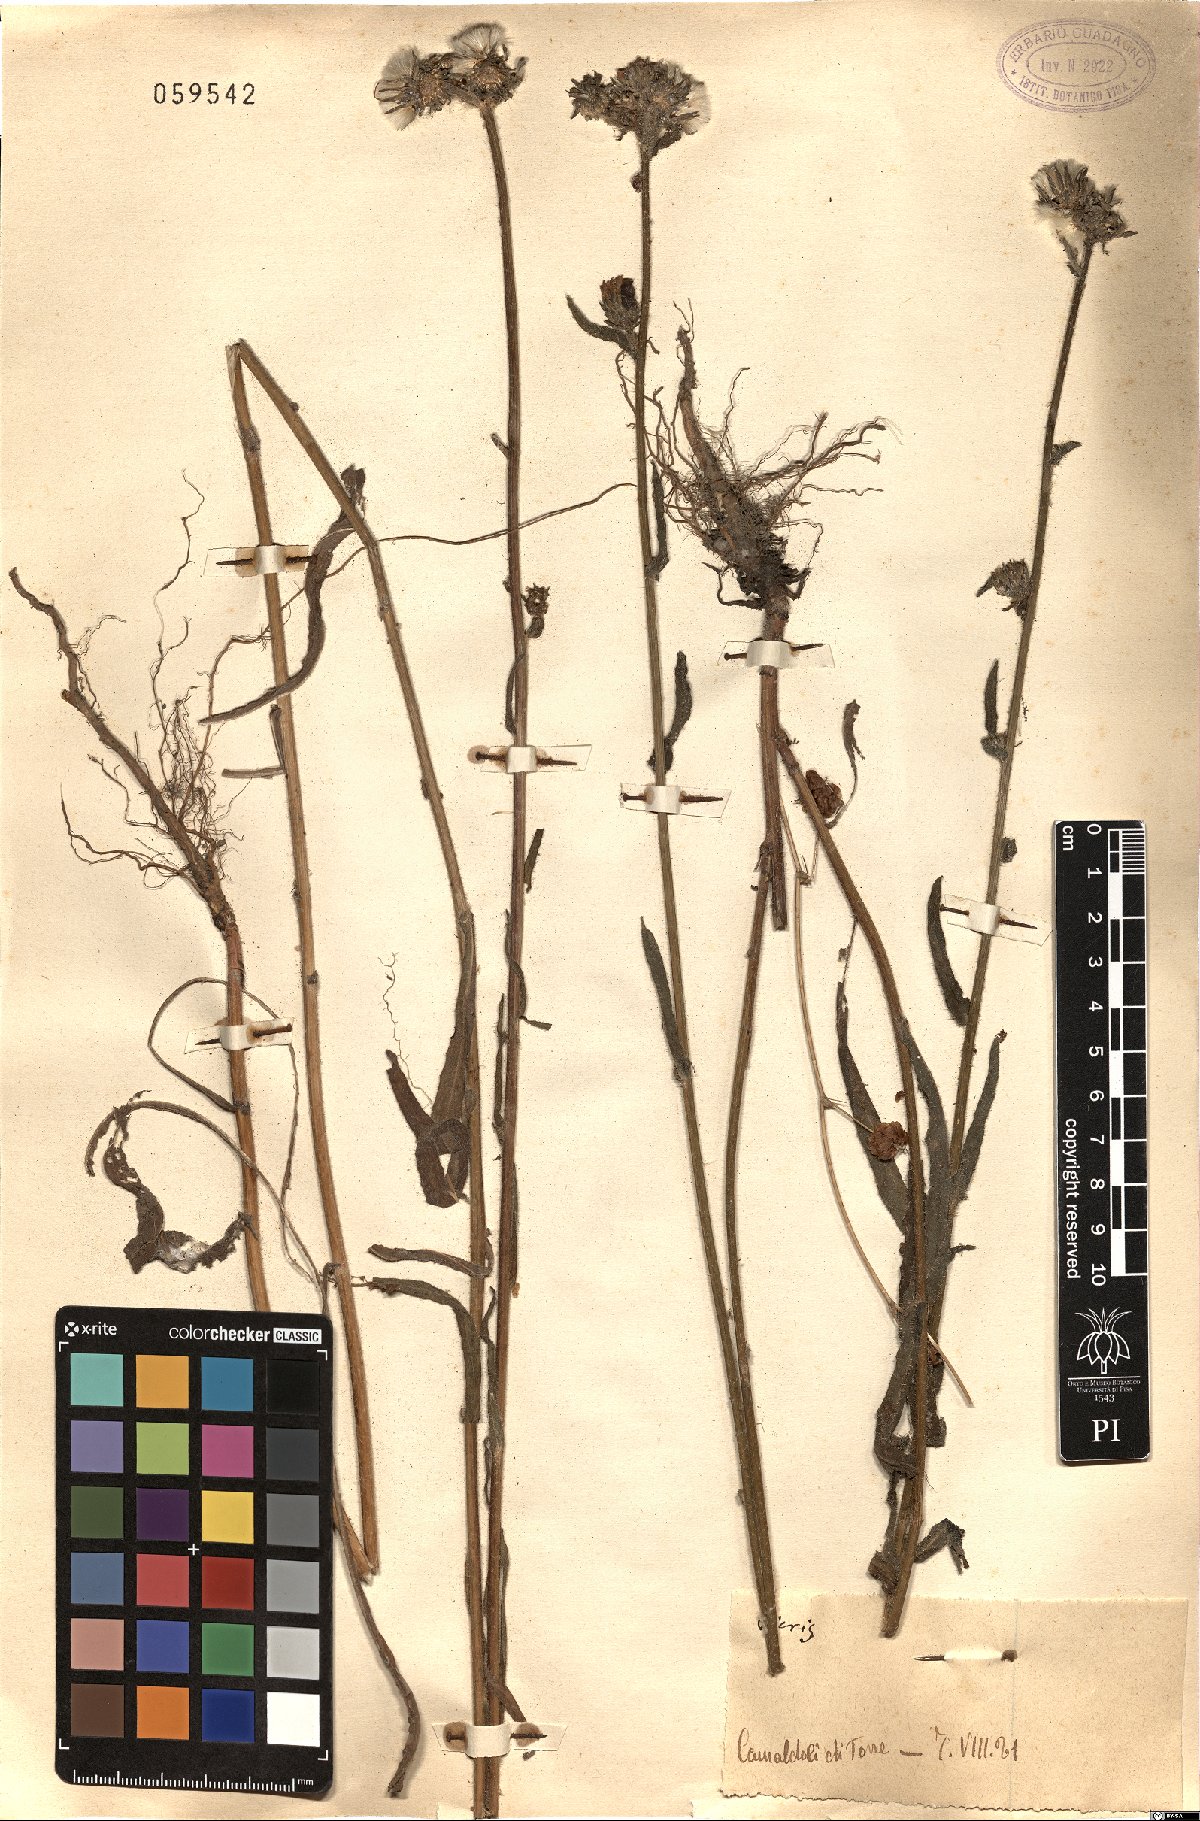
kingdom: Plantae
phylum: Tracheophyta
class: Magnoliopsida
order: Asterales
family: Asteraceae
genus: Picris
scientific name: Picris hieracioides
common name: Hawkweed oxtongue
